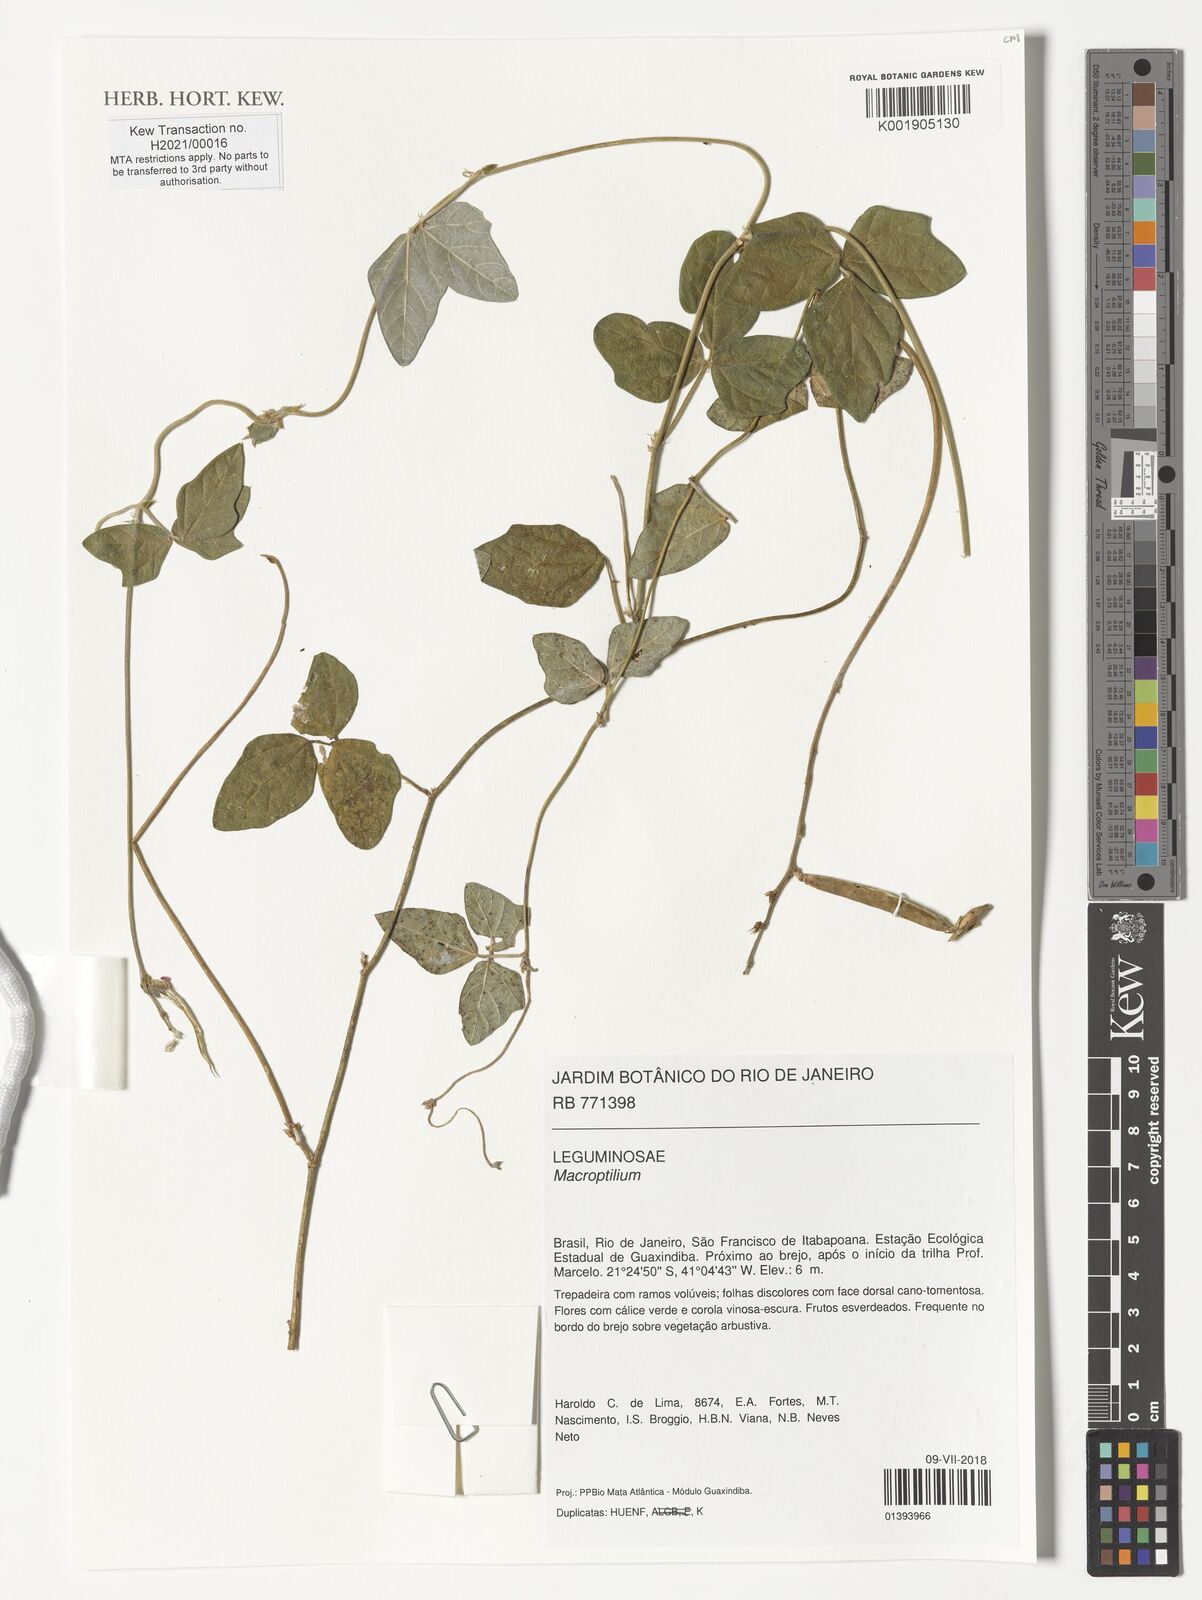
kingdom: Plantae
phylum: Tracheophyta
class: Magnoliopsida
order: Fabales
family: Fabaceae
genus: Macroptilium
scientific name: Macroptilium
